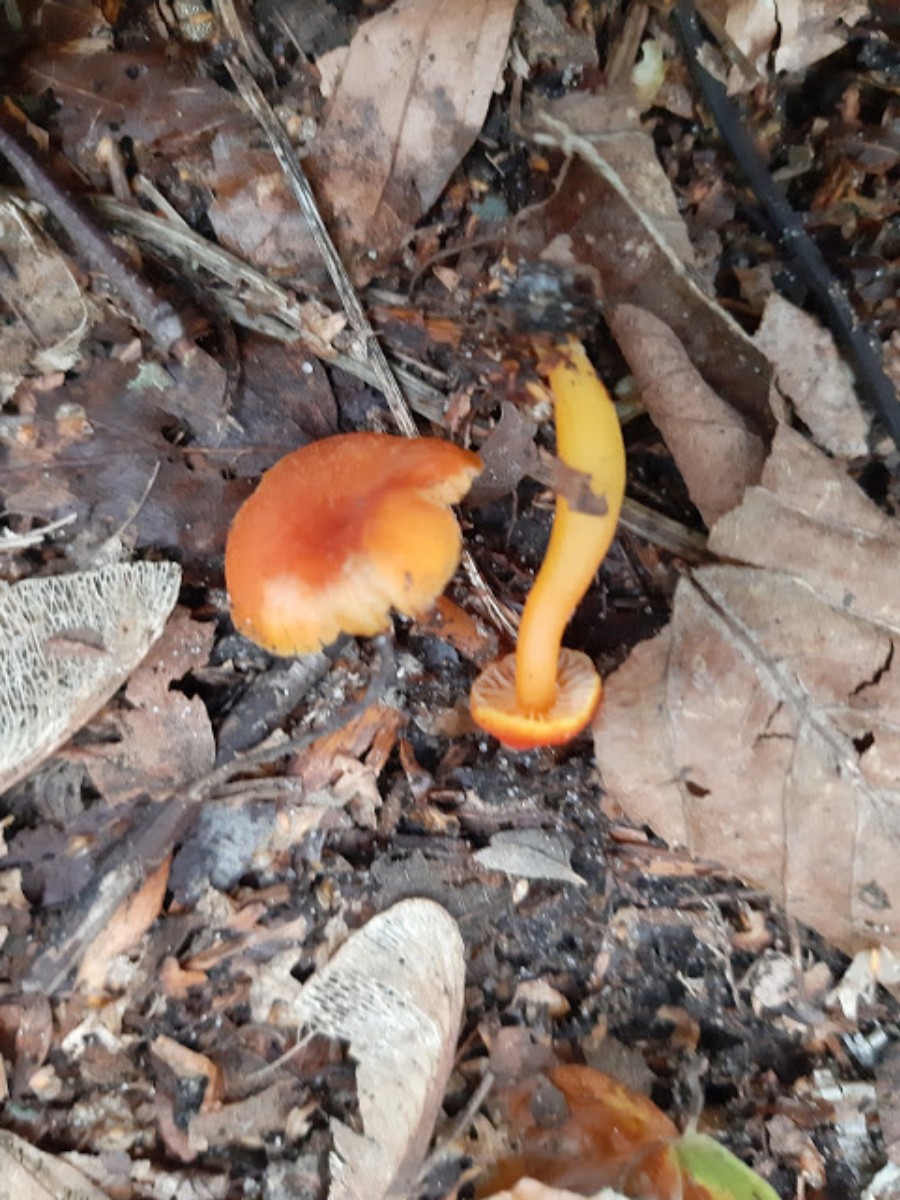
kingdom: Fungi
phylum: Basidiomycota
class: Agaricomycetes
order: Agaricales
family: Hygrophoraceae
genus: Hygrocybe
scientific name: Hygrocybe miniata
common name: mønje-vokshat
